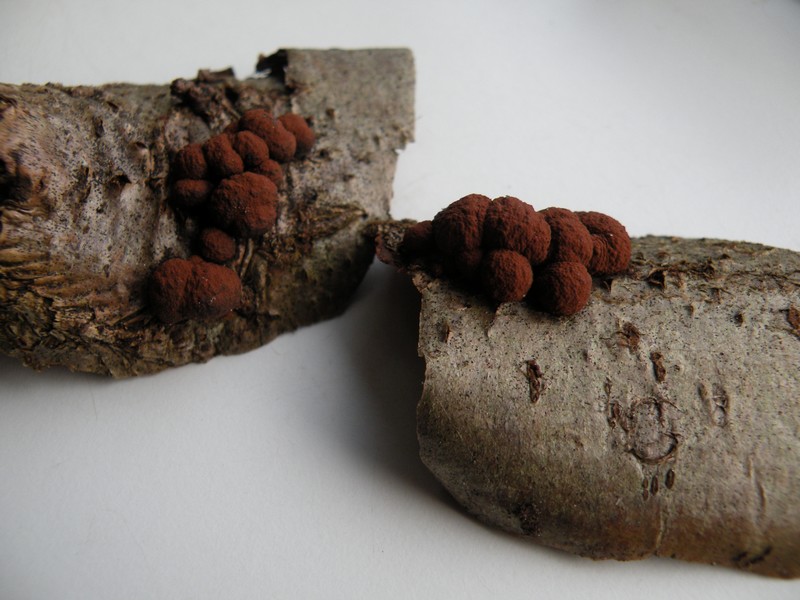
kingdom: Fungi
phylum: Ascomycota
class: Sordariomycetes
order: Xylariales
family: Hypoxylaceae
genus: Hypoxylon
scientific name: Hypoxylon fuscum
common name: kegleformet kulbær
